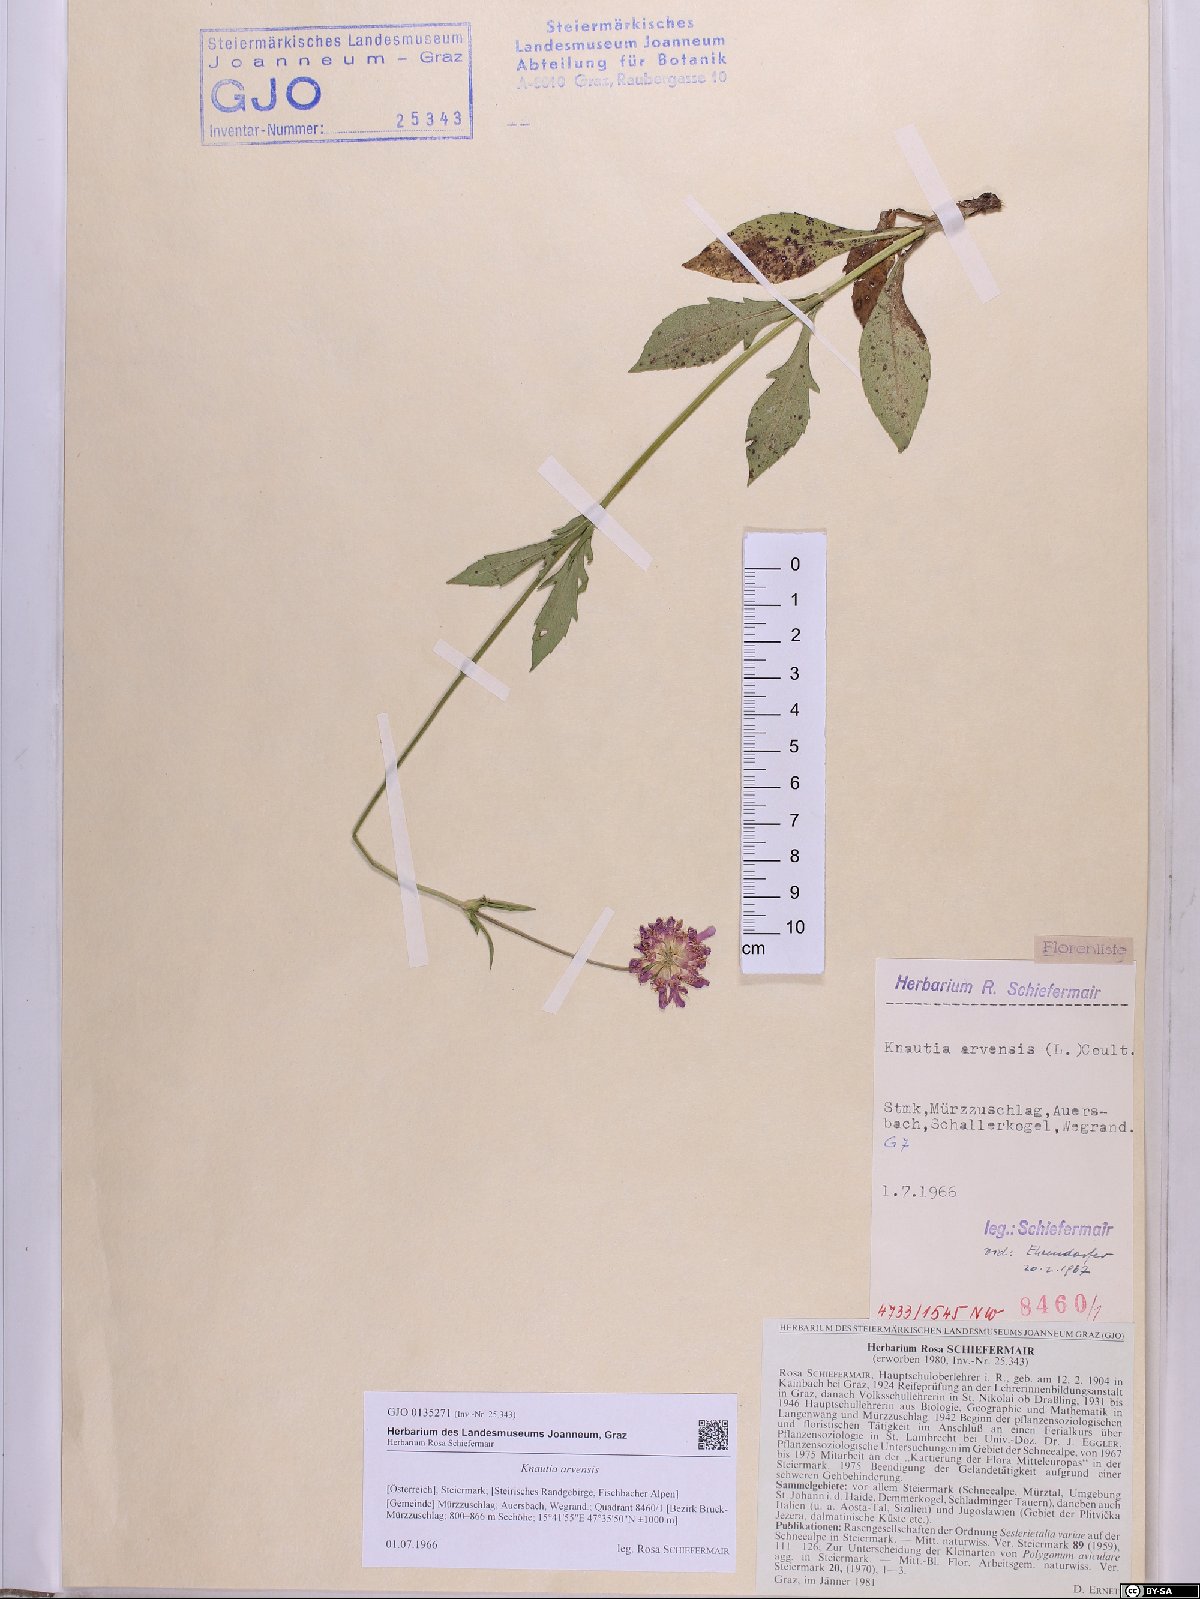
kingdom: Plantae
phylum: Tracheophyta
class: Magnoliopsida
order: Dipsacales
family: Caprifoliaceae
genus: Knautia
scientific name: Knautia arvensis
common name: Field scabiosa
